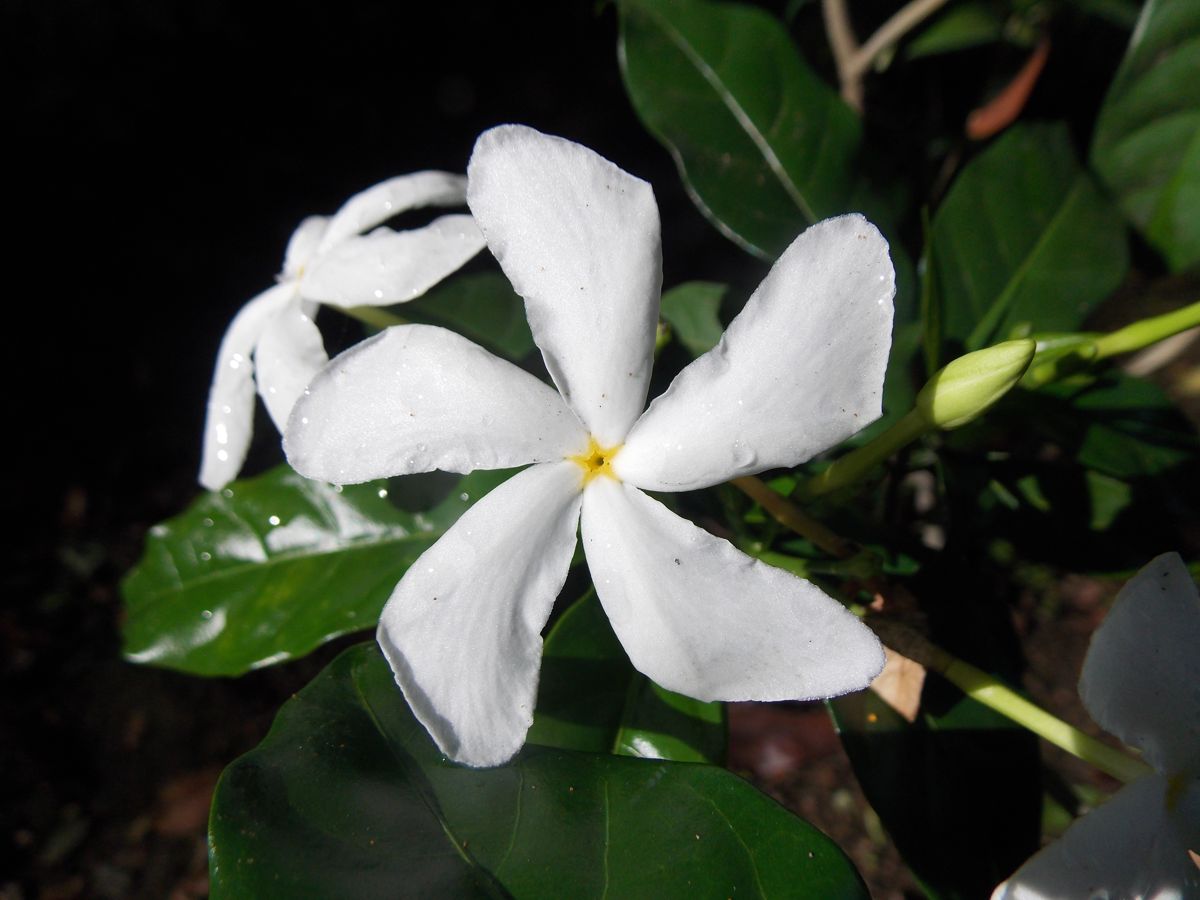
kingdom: Plantae
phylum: Tracheophyta
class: Magnoliopsida
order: Gentianales
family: Apocynaceae
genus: Tabernaemontana
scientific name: Tabernaemontana divaricata
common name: Pinwheelflower
